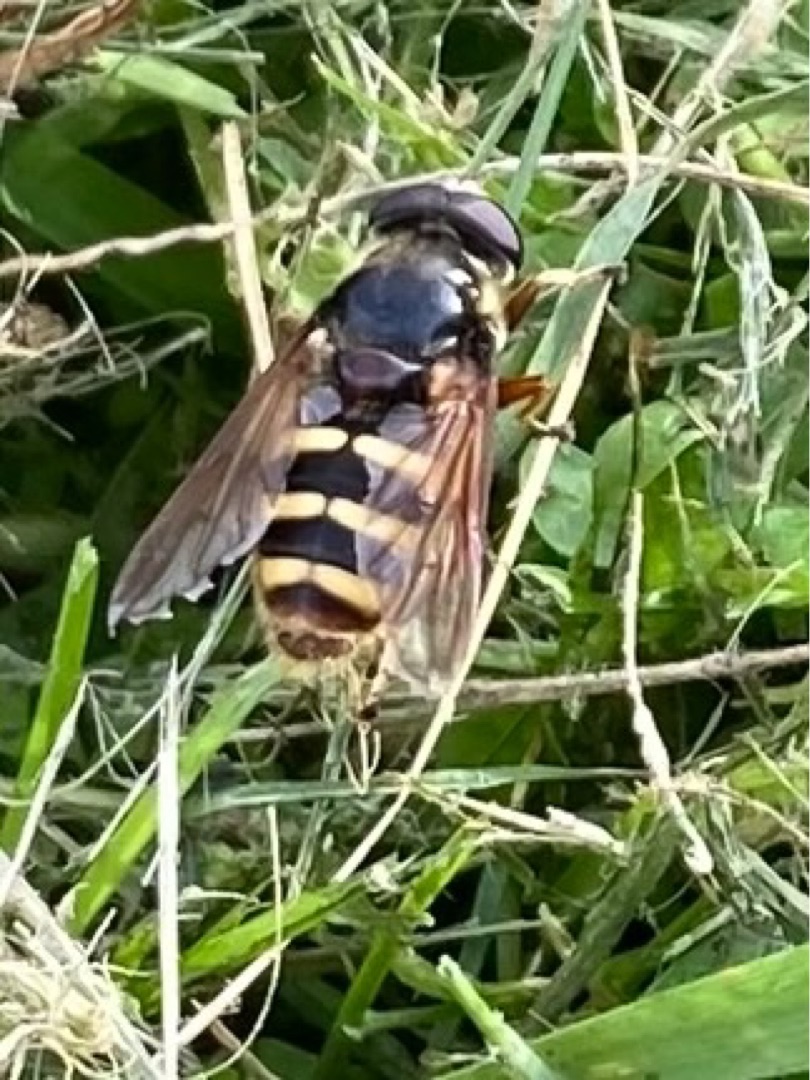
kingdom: Animalia
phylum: Arthropoda
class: Insecta
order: Diptera
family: Syrphidae
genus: Sericomyia
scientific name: Sericomyia silentis
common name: Tørve-silkesvirreflue
